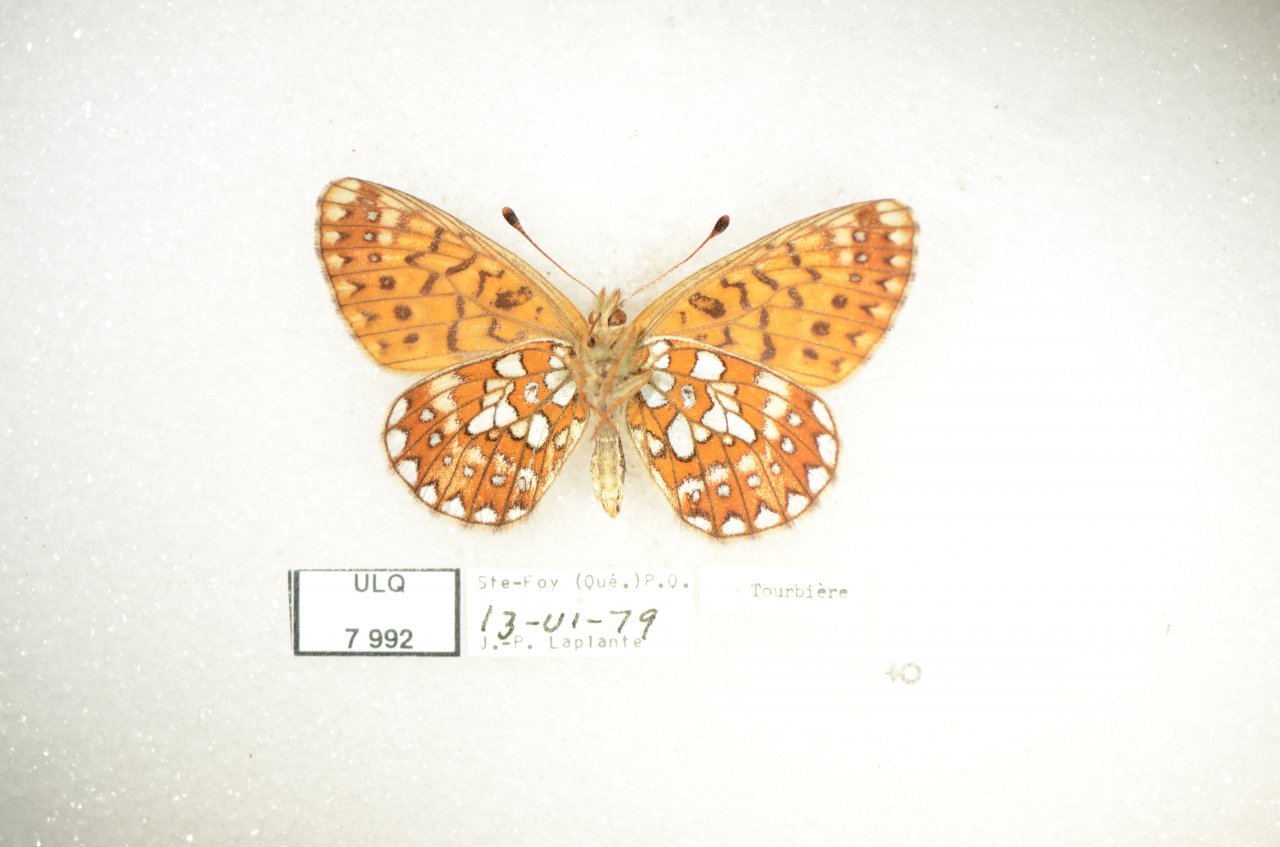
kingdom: Animalia
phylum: Arthropoda
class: Insecta
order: Lepidoptera
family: Nymphalidae
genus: Boloria
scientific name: Boloria eunomia
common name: Bog Fritillary
